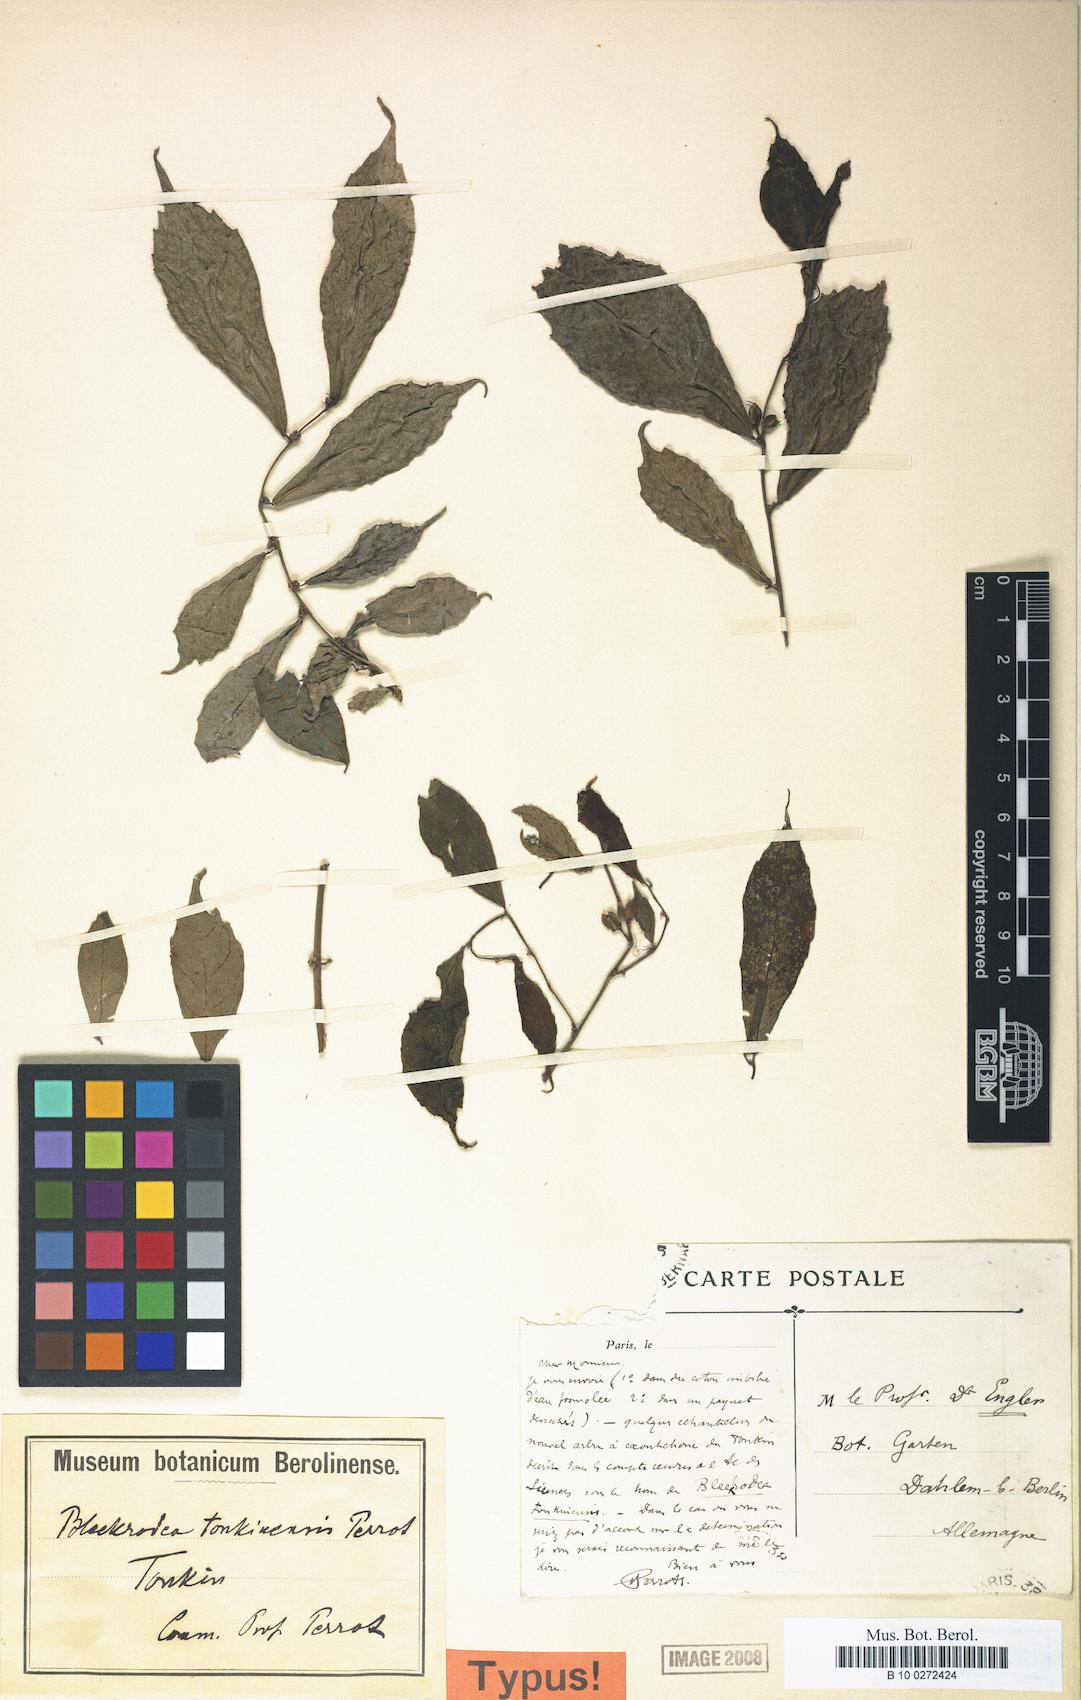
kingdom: Plantae
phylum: Tracheophyta
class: Magnoliopsida
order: Rosales
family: Moraceae
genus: Bleekrodea
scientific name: Bleekrodea tonkinensis
